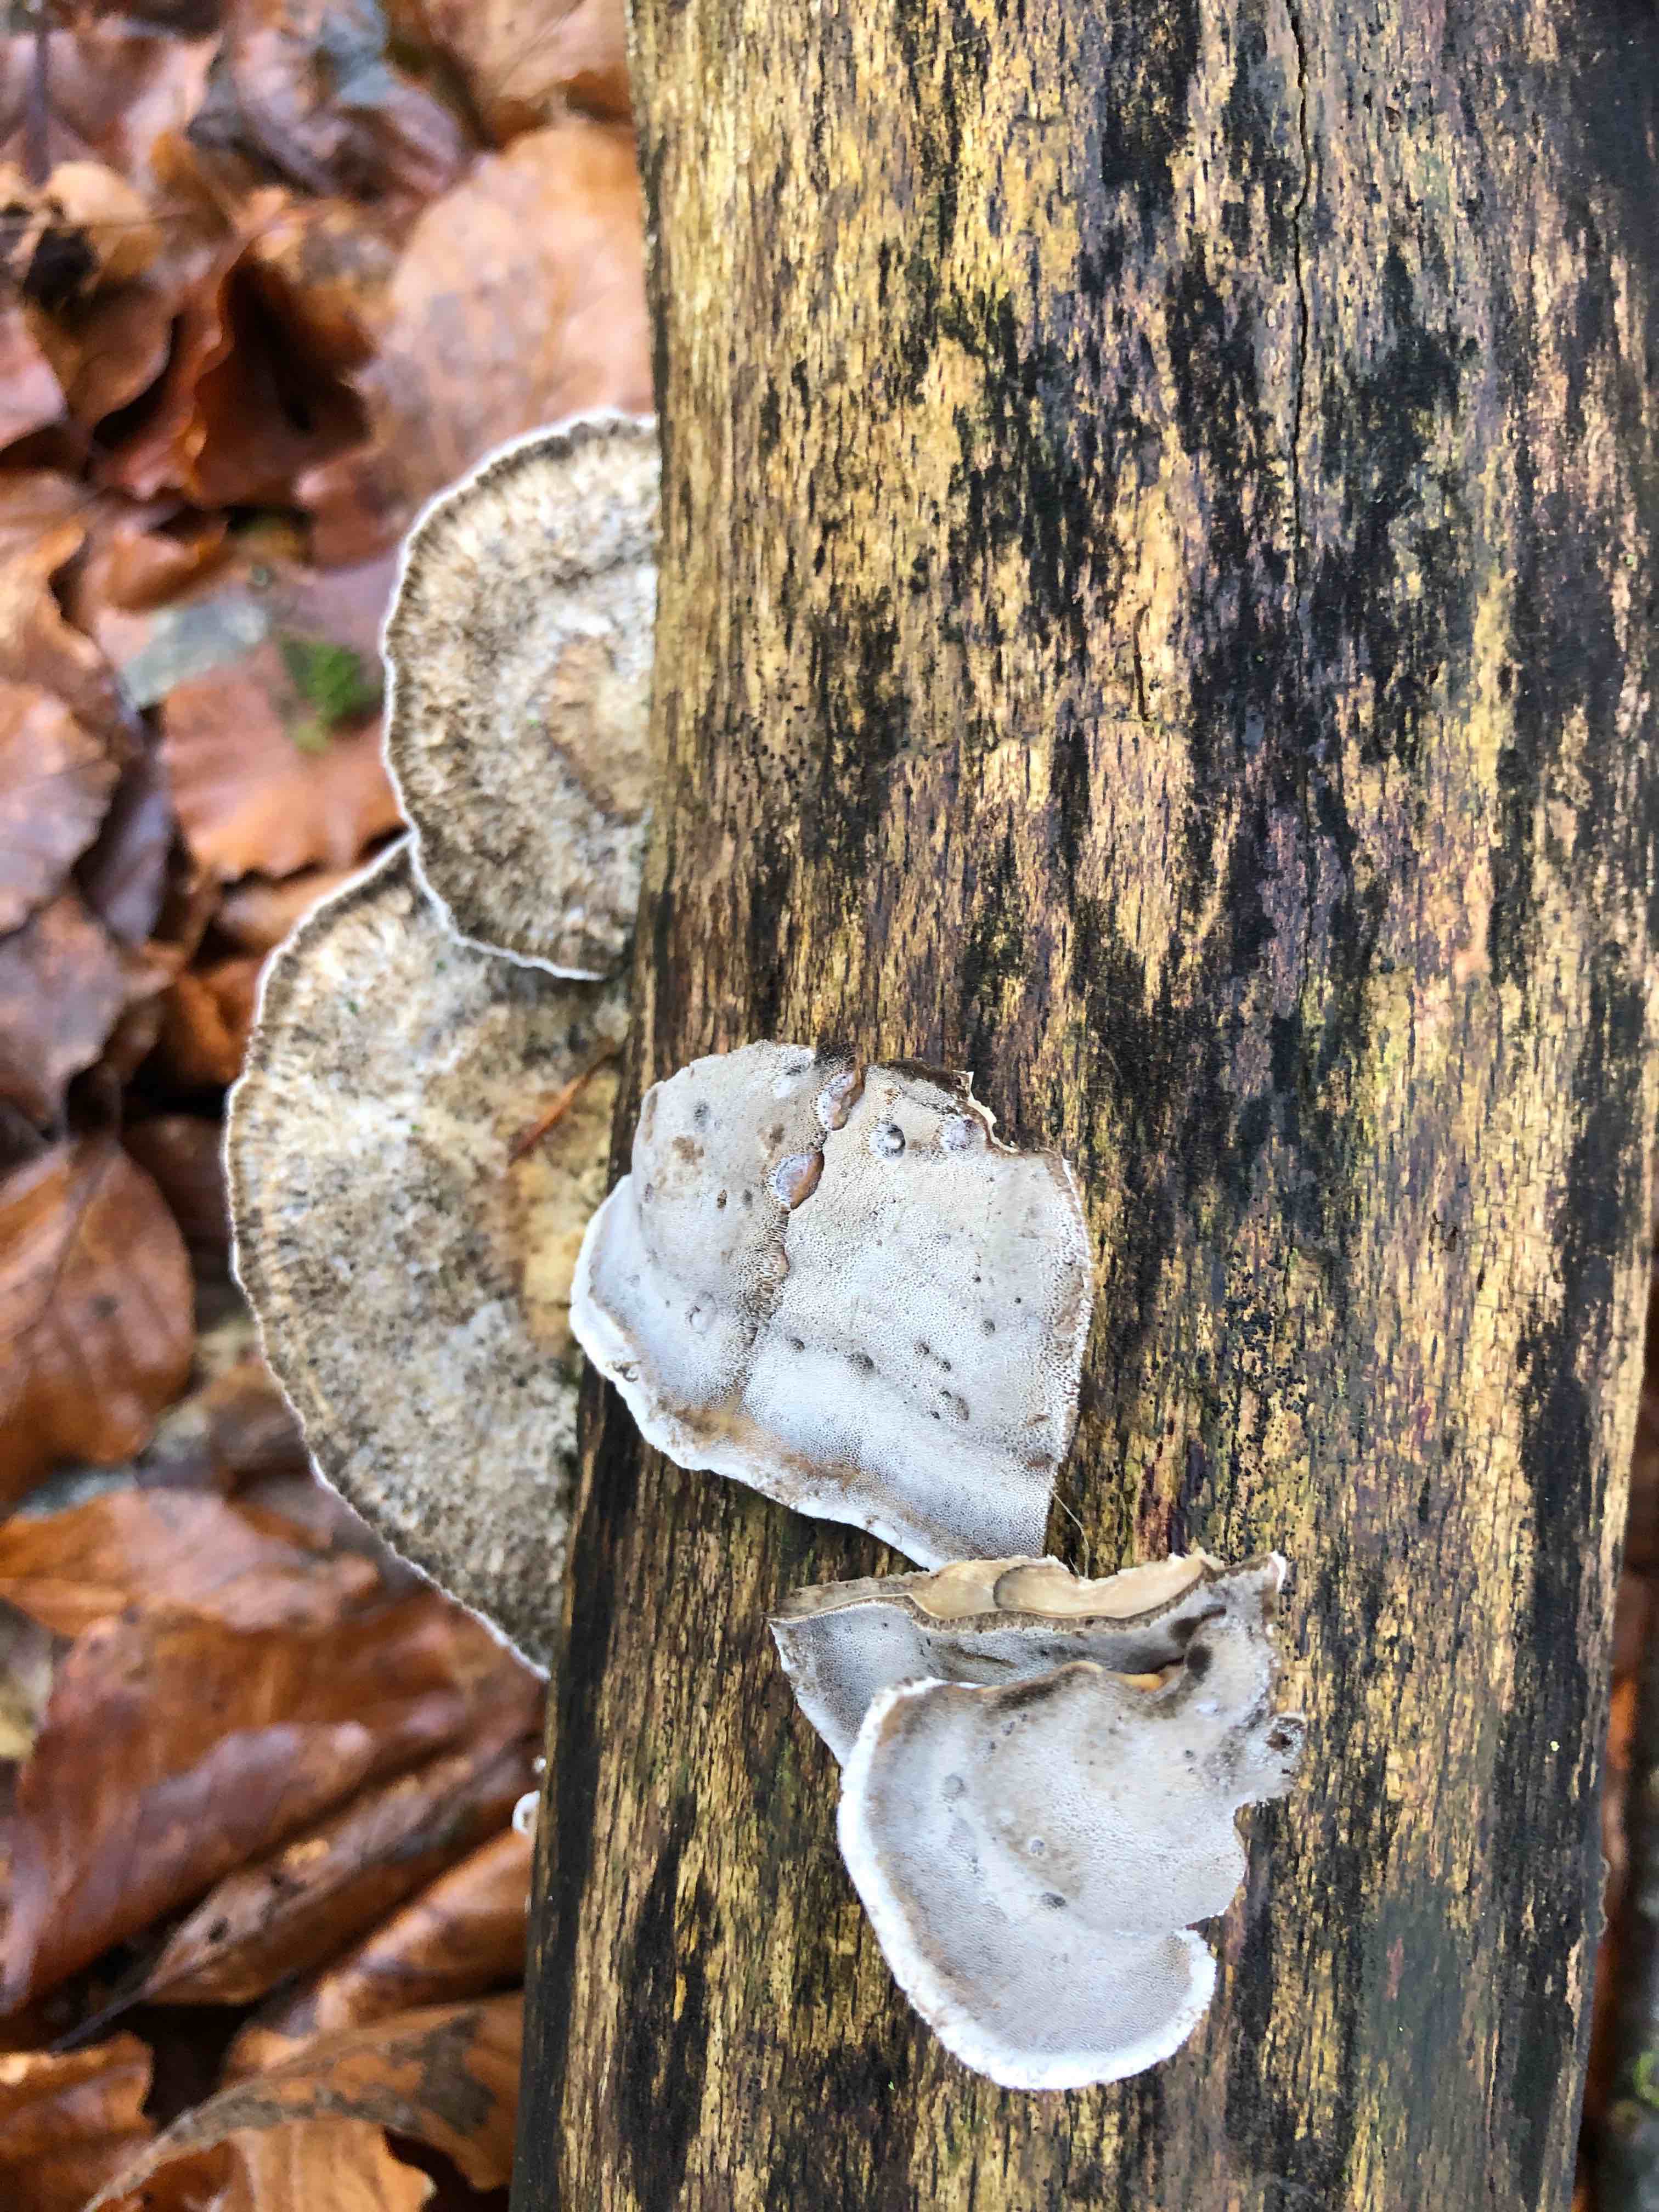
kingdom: Fungi
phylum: Basidiomycota
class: Agaricomycetes
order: Polyporales
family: Phanerochaetaceae
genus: Bjerkandera
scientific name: Bjerkandera adusta
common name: sveden sodporesvamp
